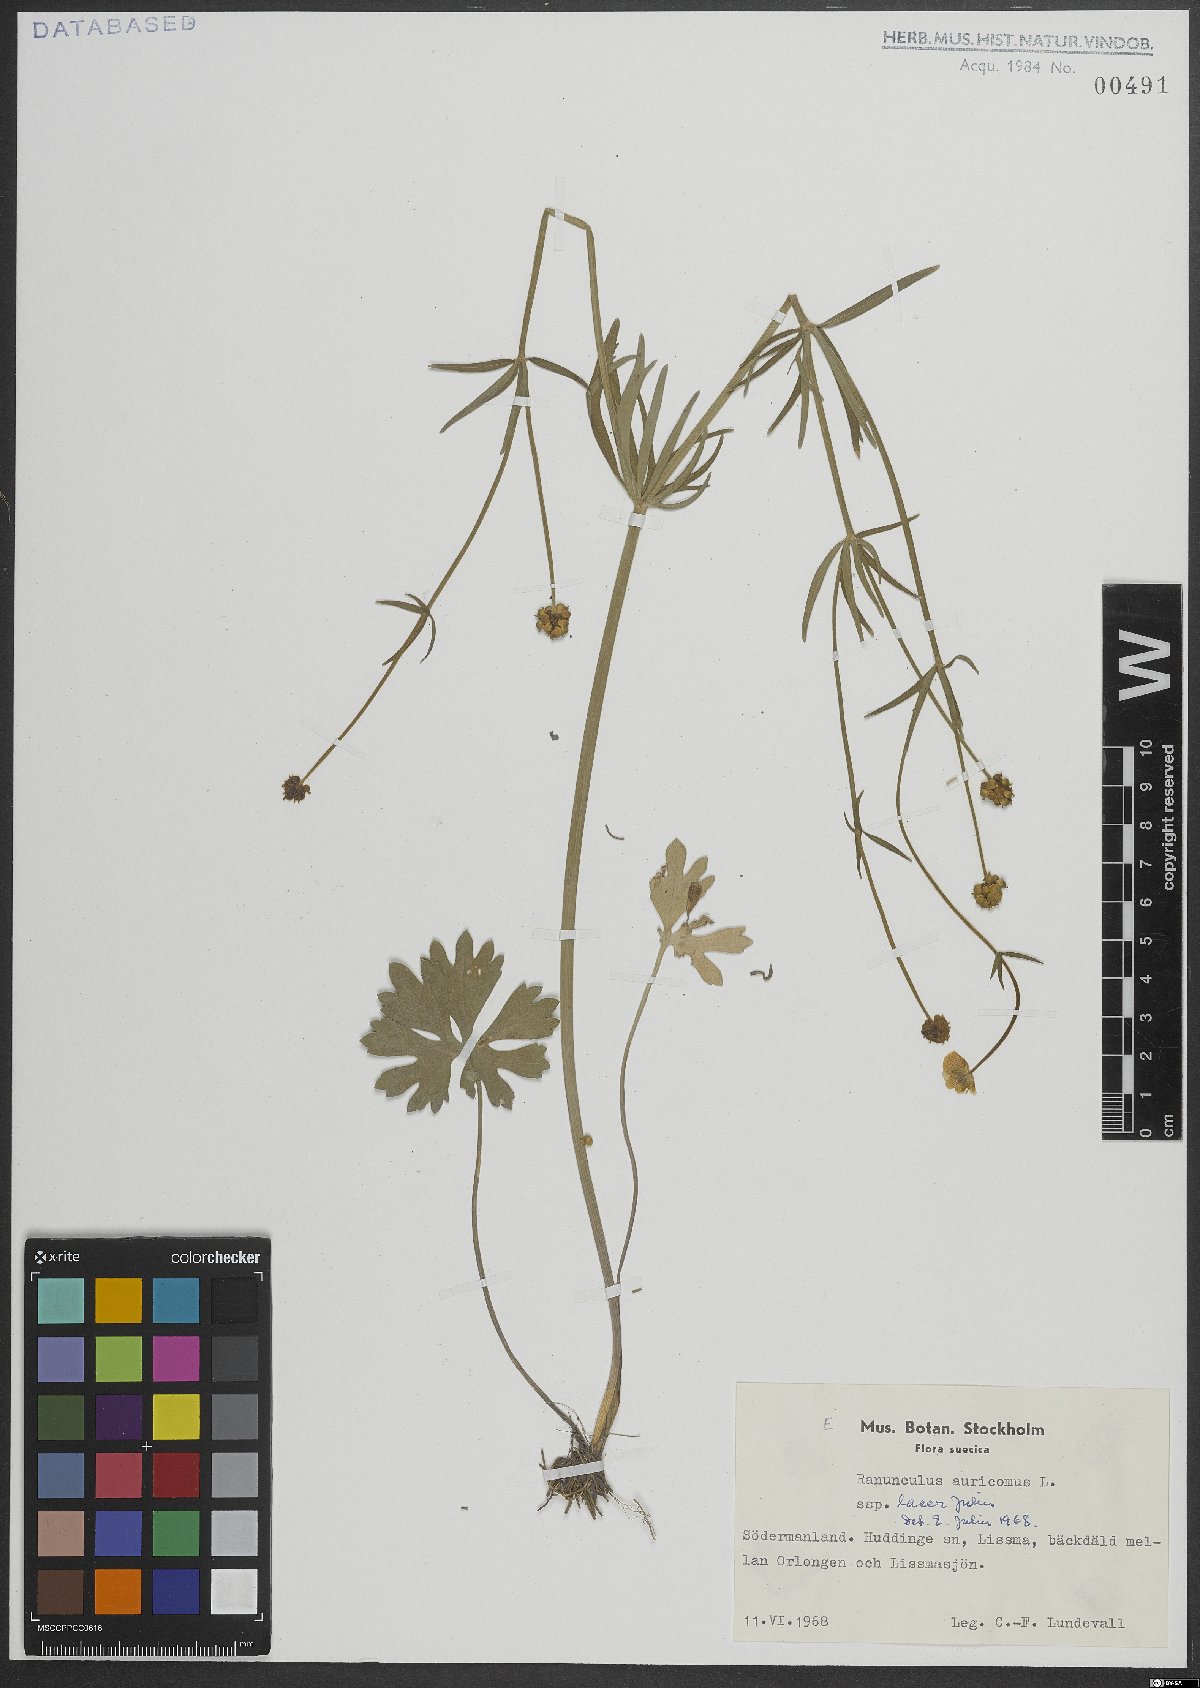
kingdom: Plantae
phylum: Tracheophyta
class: Magnoliopsida
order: Ranunculales
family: Ranunculaceae
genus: Ranunculus
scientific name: Ranunculus auricomus
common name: Goldilocks buttercup
